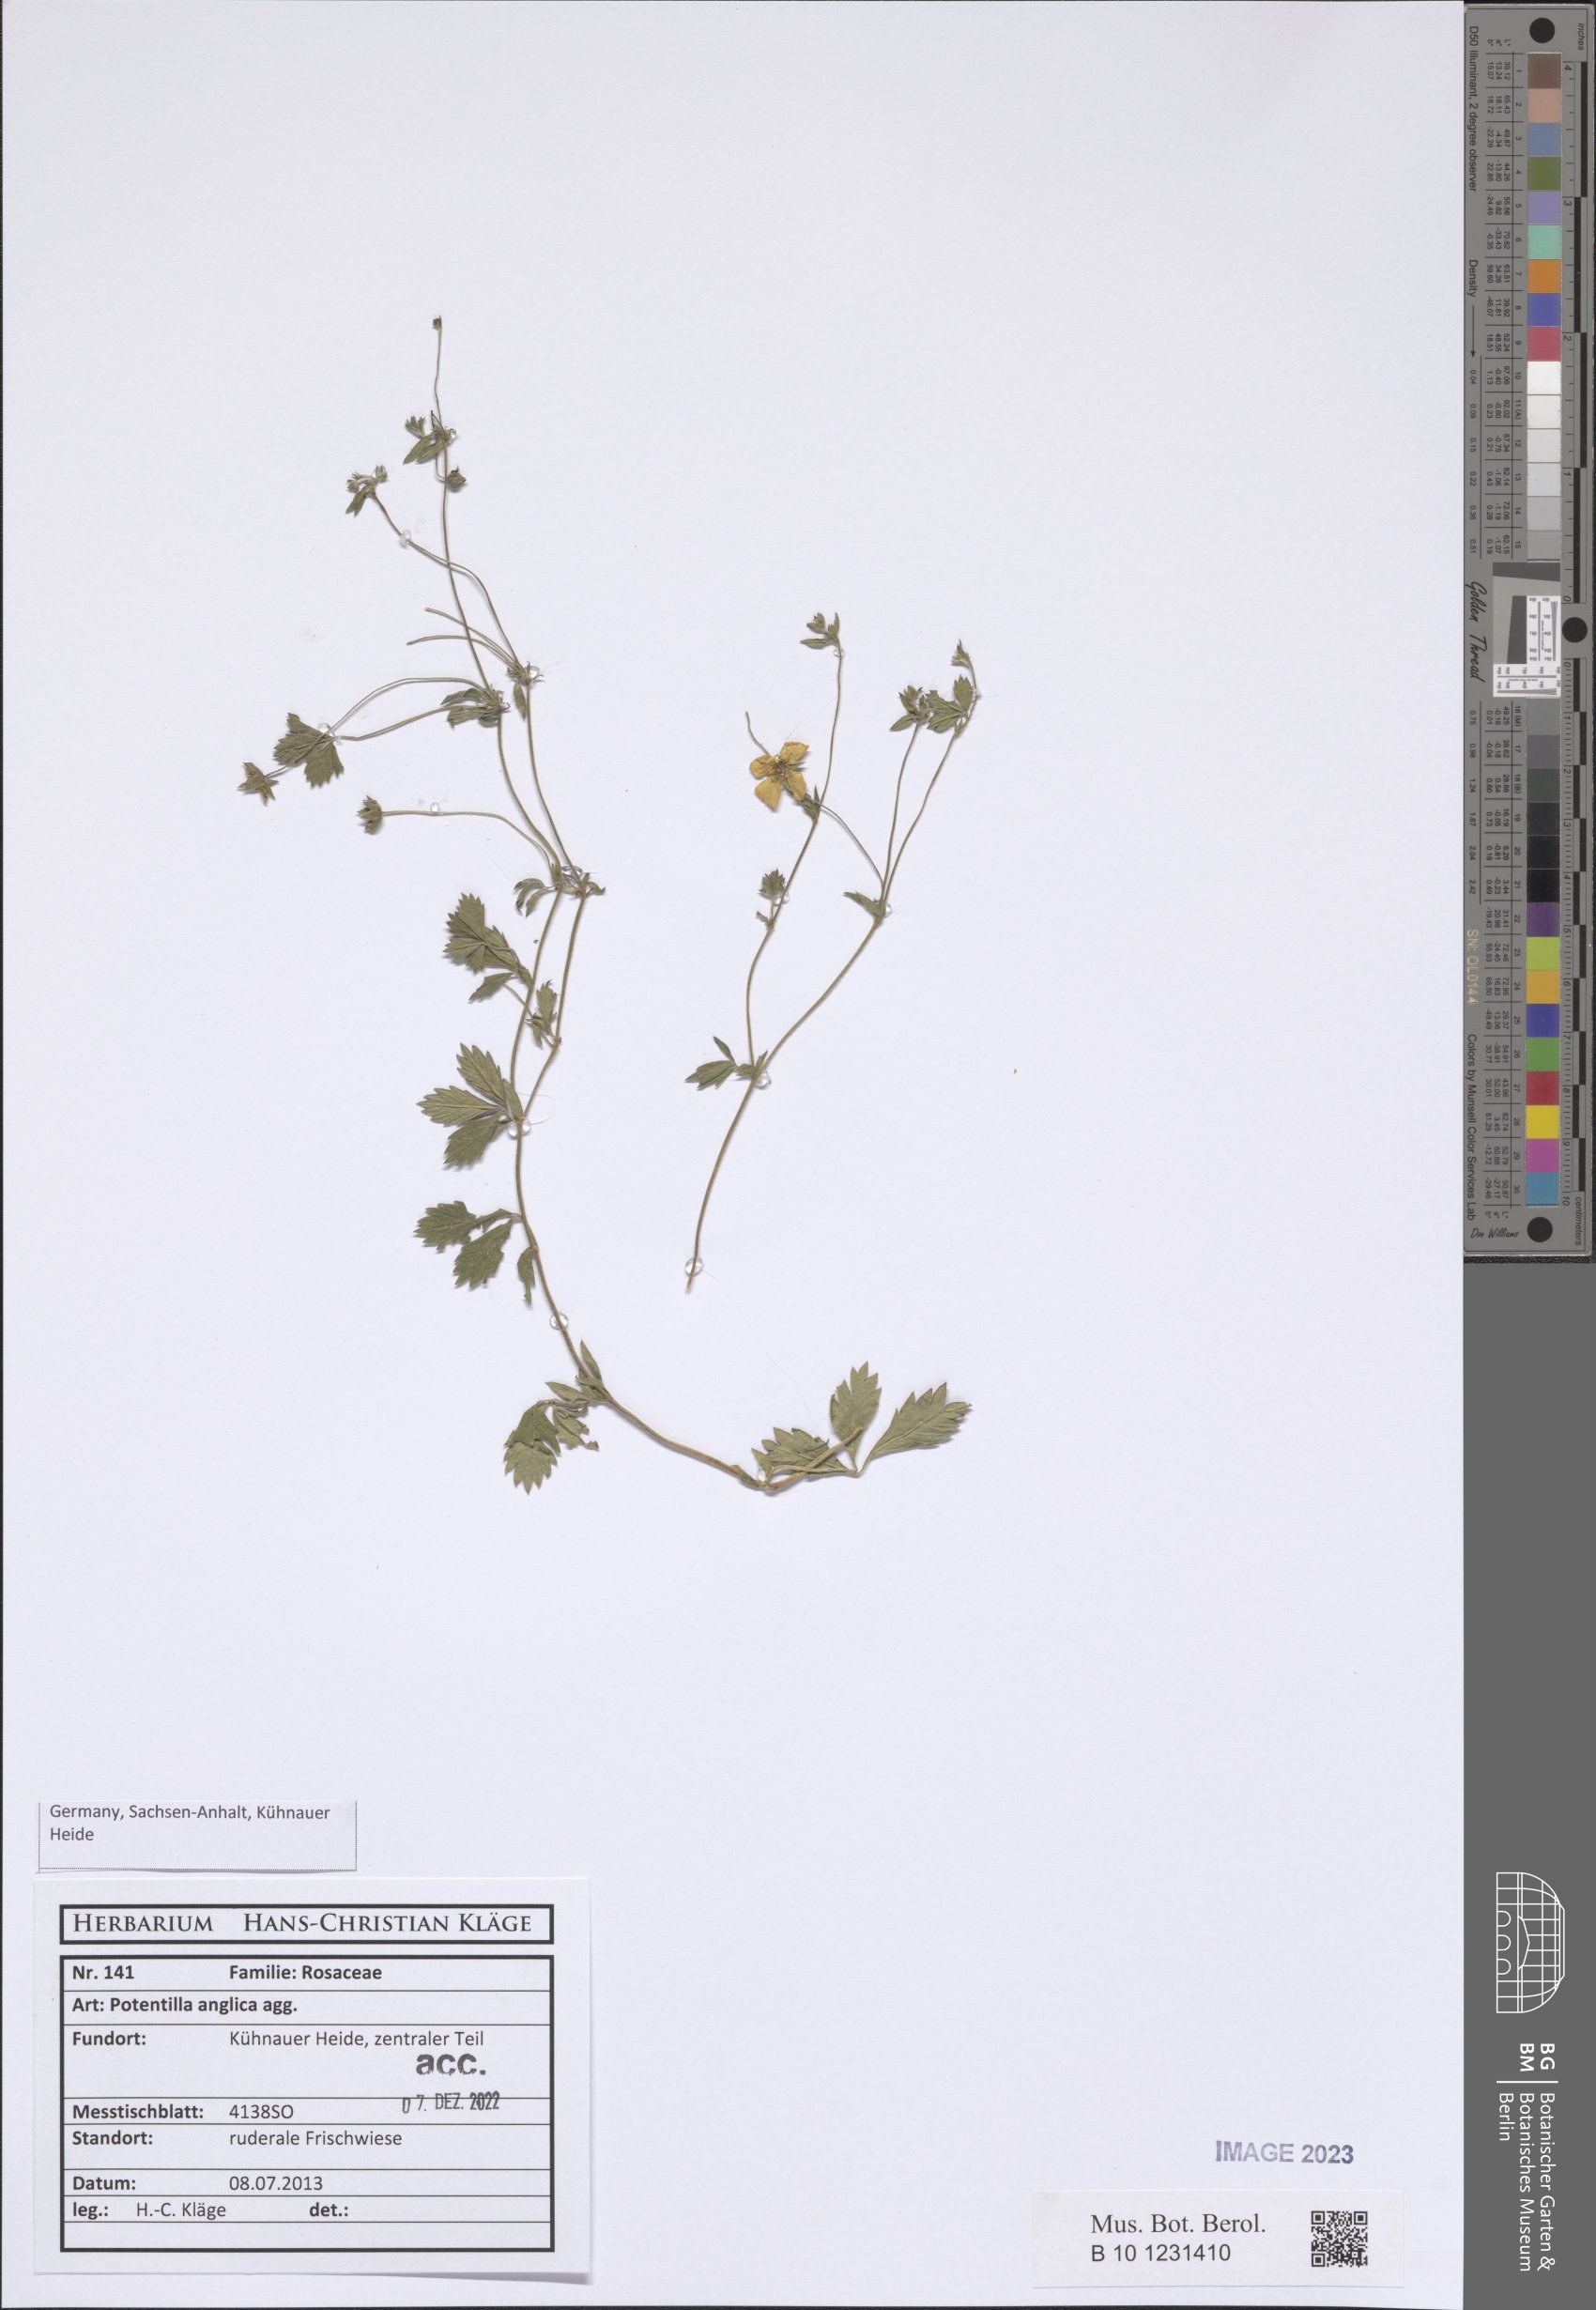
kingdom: Plantae
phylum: Tracheophyta
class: Magnoliopsida
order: Rosales
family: Rosaceae
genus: Potentilla
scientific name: Potentilla anglica
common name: Trailing tormentil
